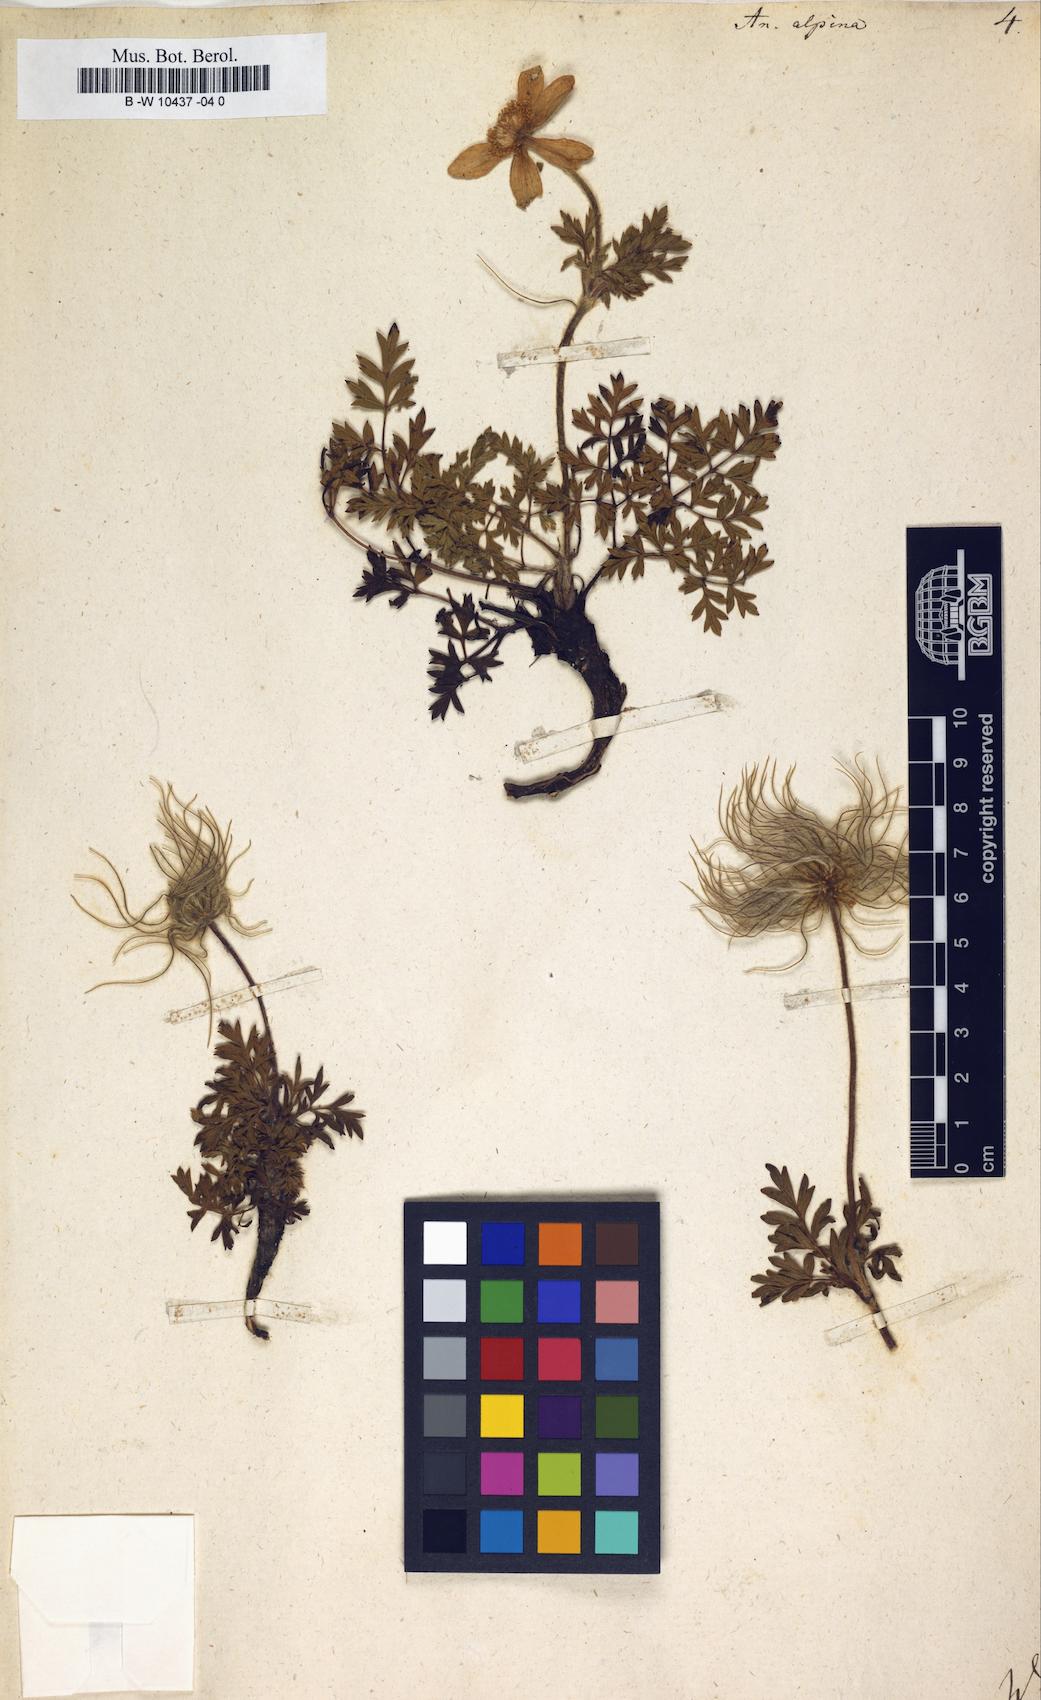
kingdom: Plantae
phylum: Tracheophyta
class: Magnoliopsida
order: Ranunculales
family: Ranunculaceae
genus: Pulsatilla
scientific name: Pulsatilla alpina
